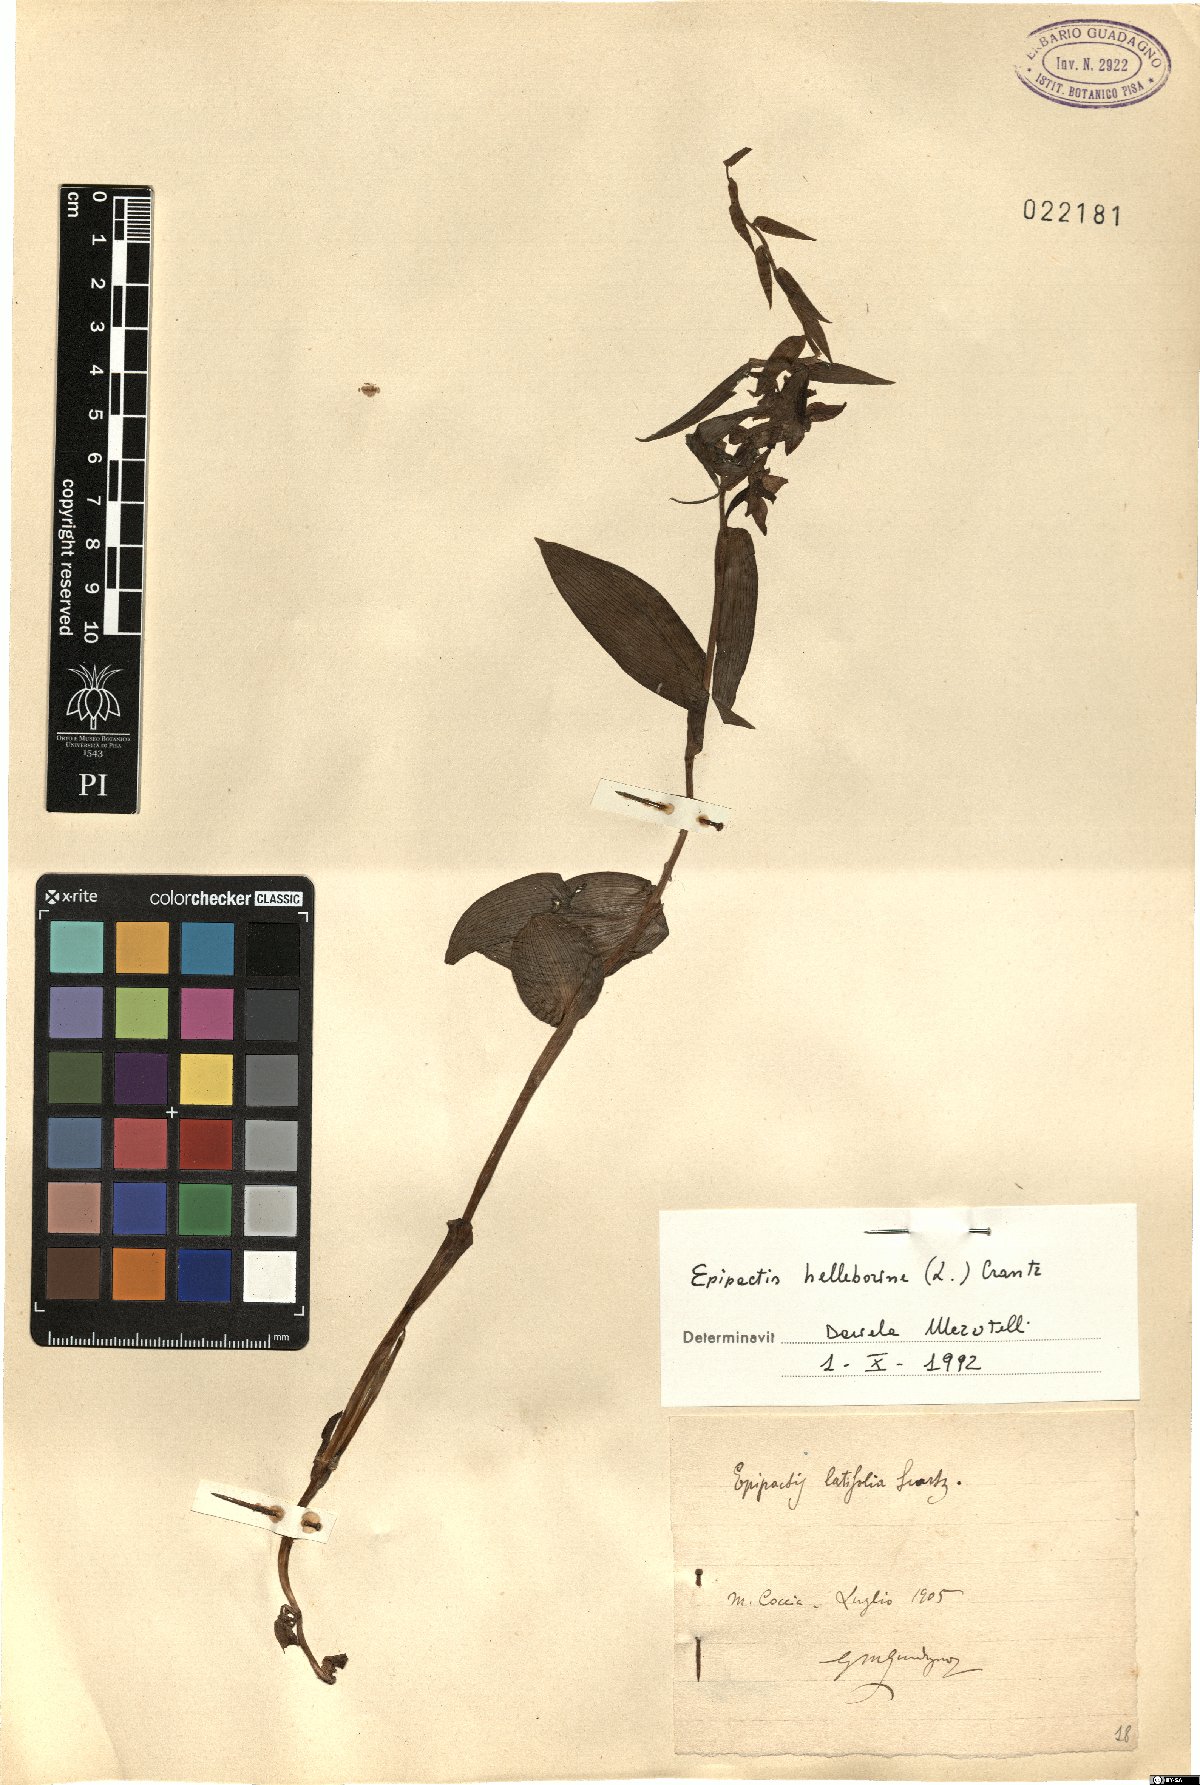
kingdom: Plantae
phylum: Tracheophyta
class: Liliopsida
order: Asparagales
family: Orchidaceae
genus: Epipactis
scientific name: Epipactis helleborine
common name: Broad-leaved helleborine
